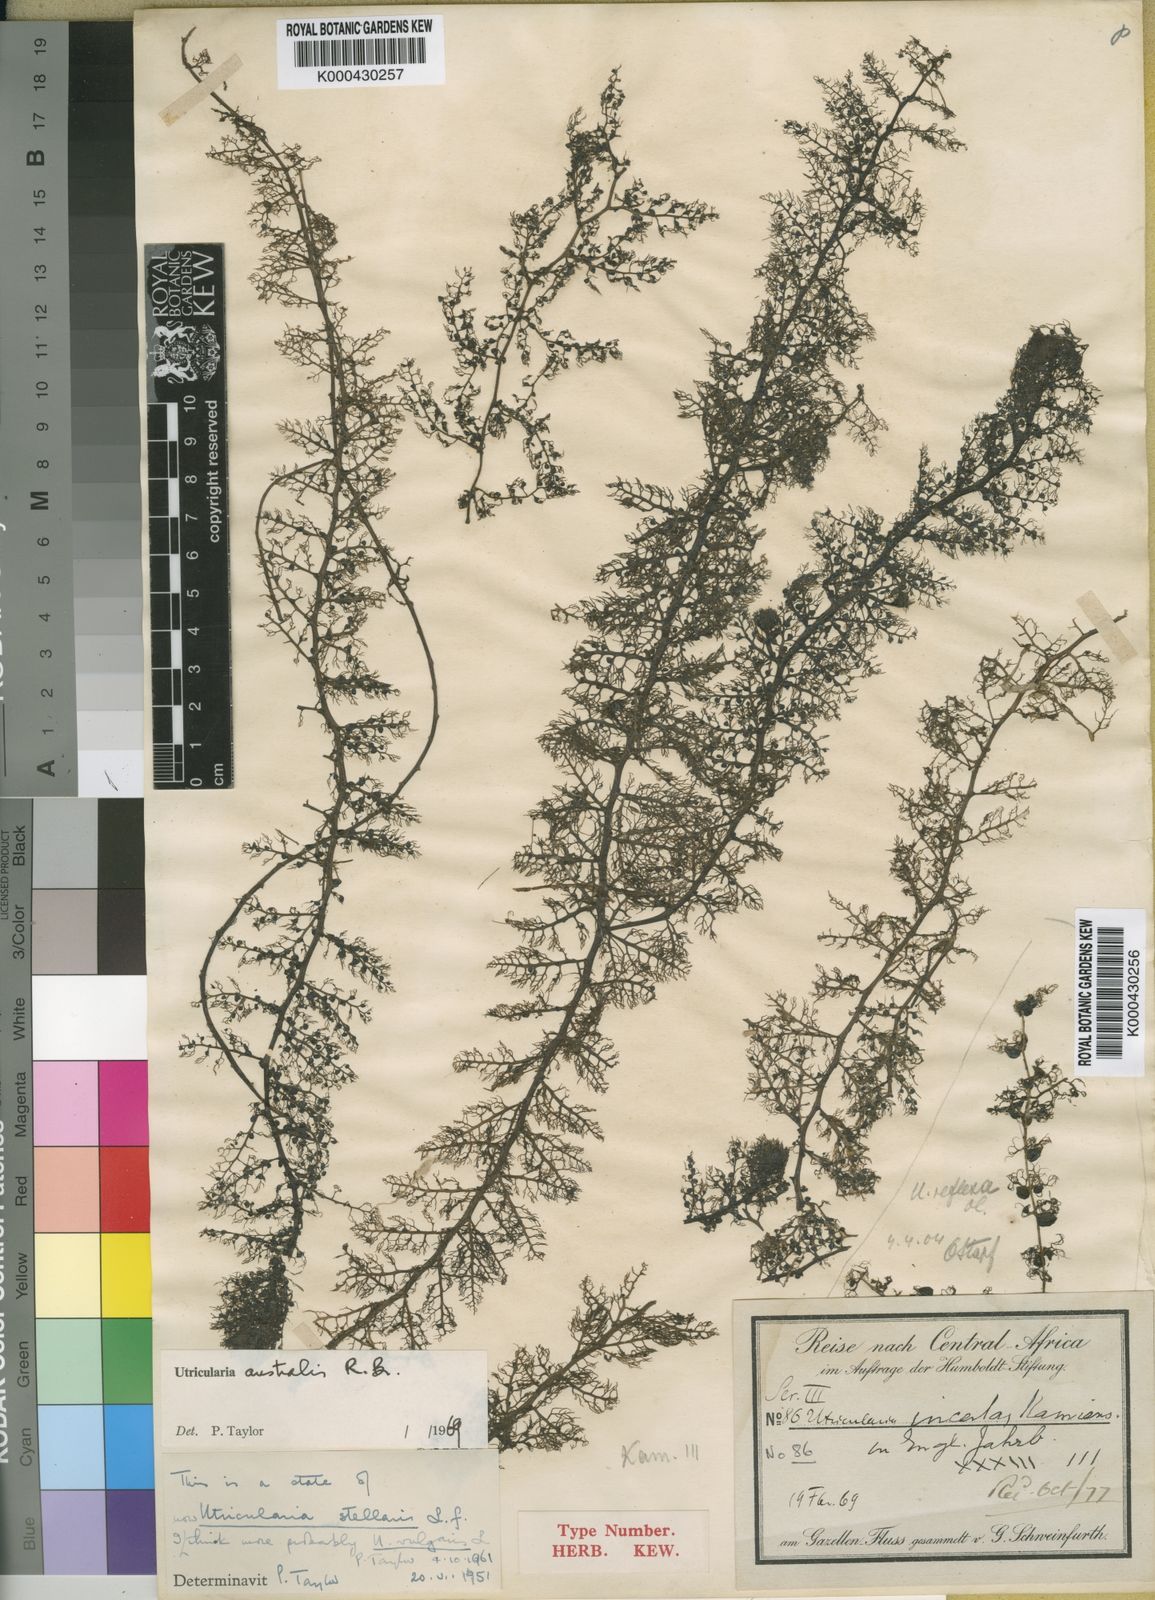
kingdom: Plantae
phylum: Tracheophyta
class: Magnoliopsida
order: Lamiales
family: Lentibulariaceae
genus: Utricularia
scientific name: Utricularia australis
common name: Bladderwort
